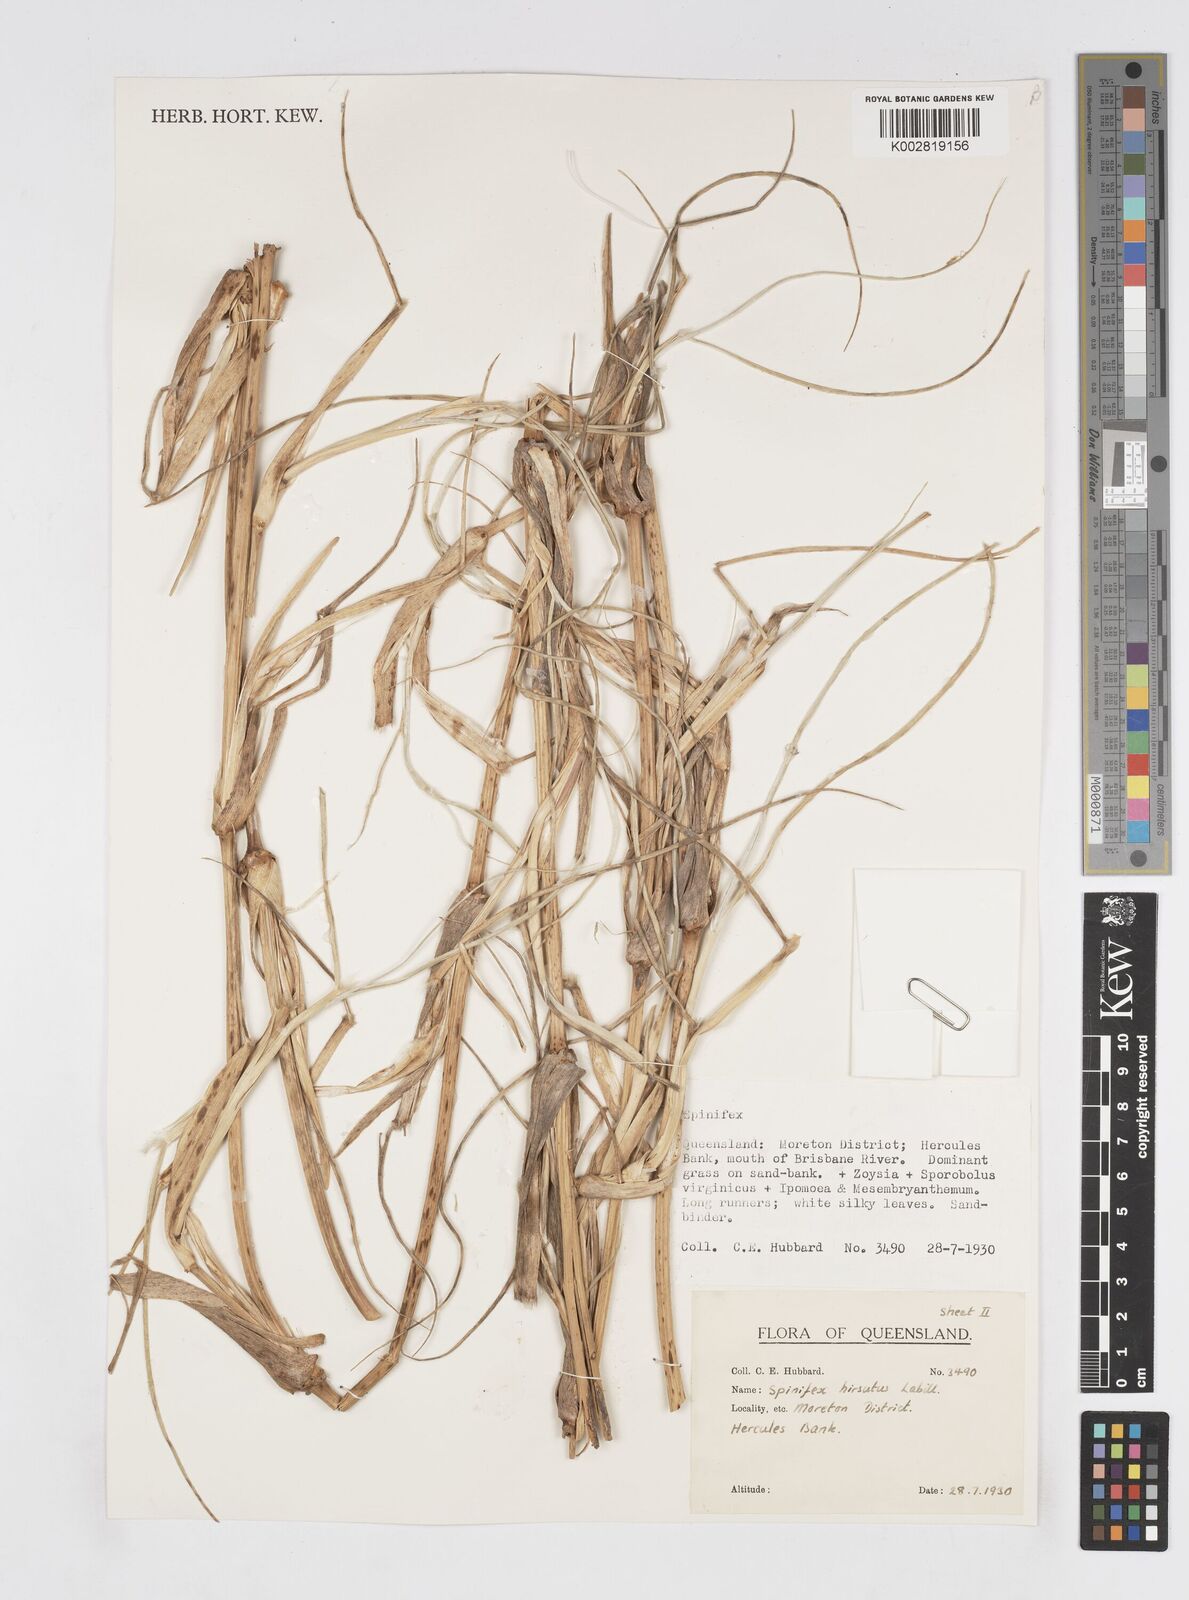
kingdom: Plantae
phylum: Tracheophyta
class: Liliopsida
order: Poales
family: Poaceae
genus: Spinifex
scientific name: Spinifex hirsutus
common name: Hairy spinifex
